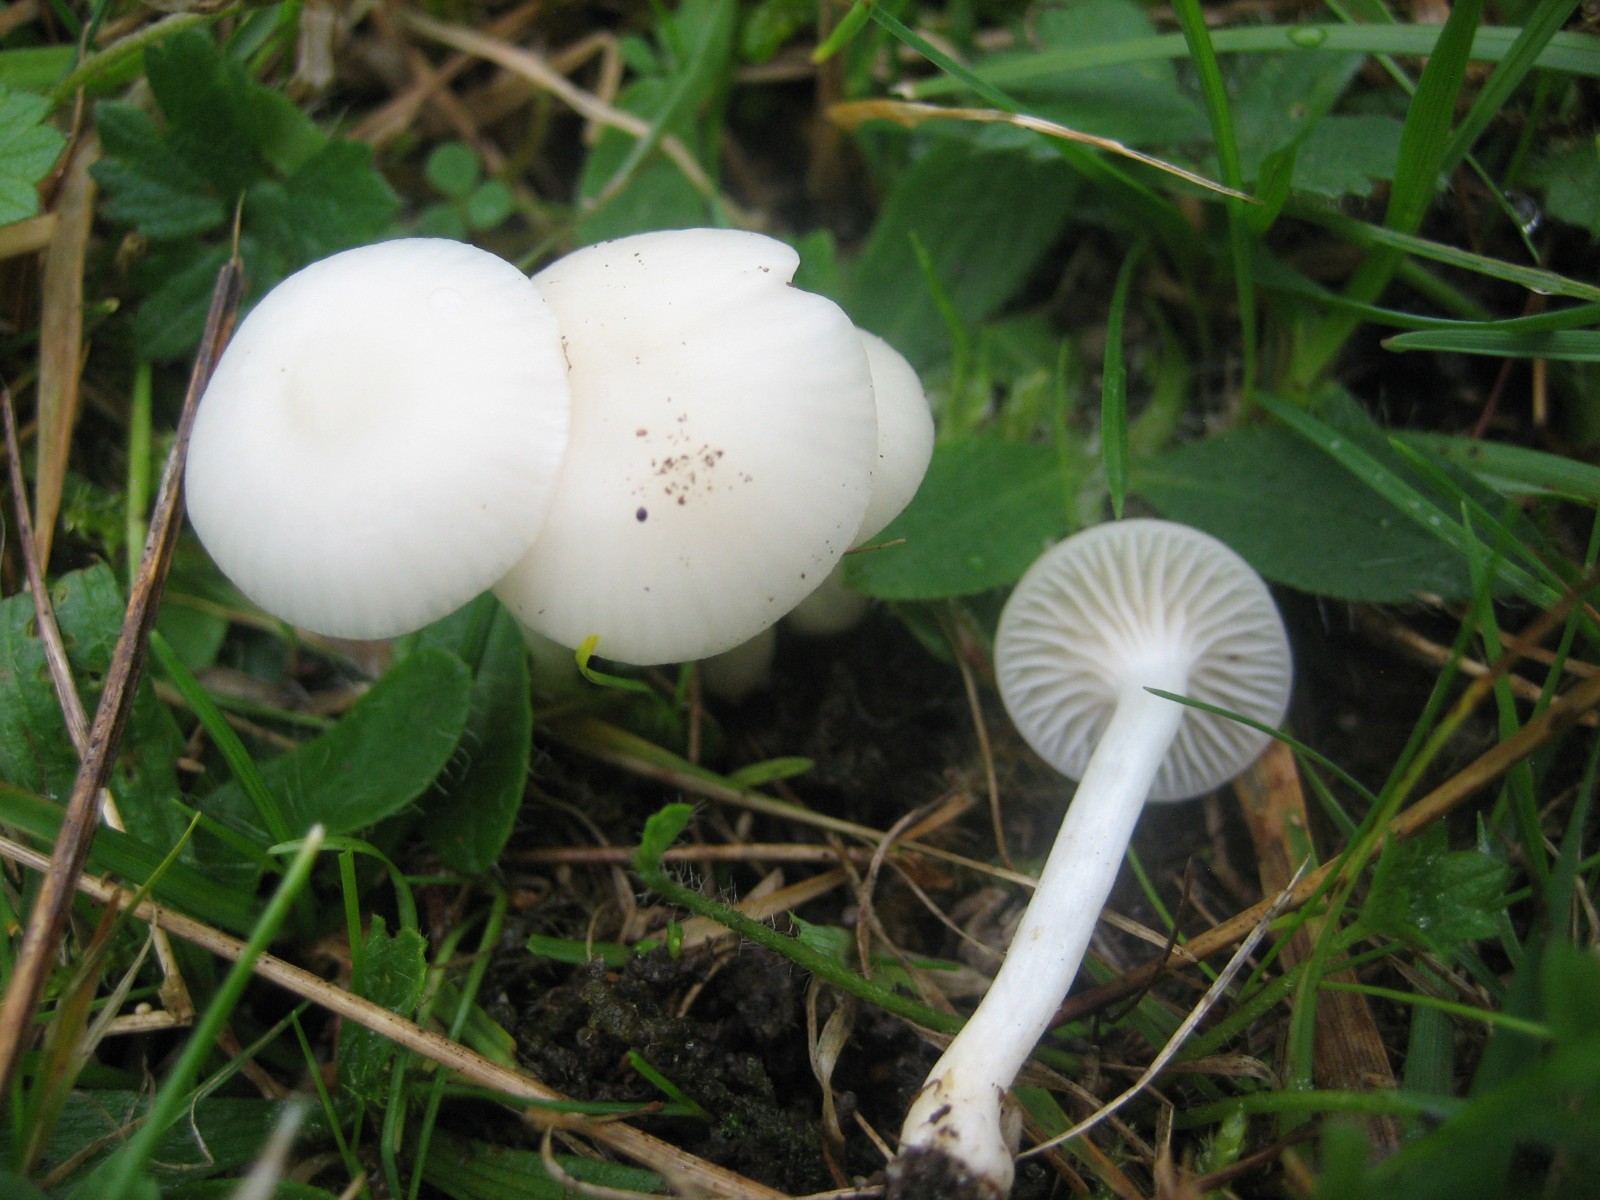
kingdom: Fungi
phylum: Basidiomycota
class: Agaricomycetes
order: Agaricales
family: Hygrophoraceae
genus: Cuphophyllus
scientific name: Cuphophyllus virgineus
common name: snehvid vokshat
